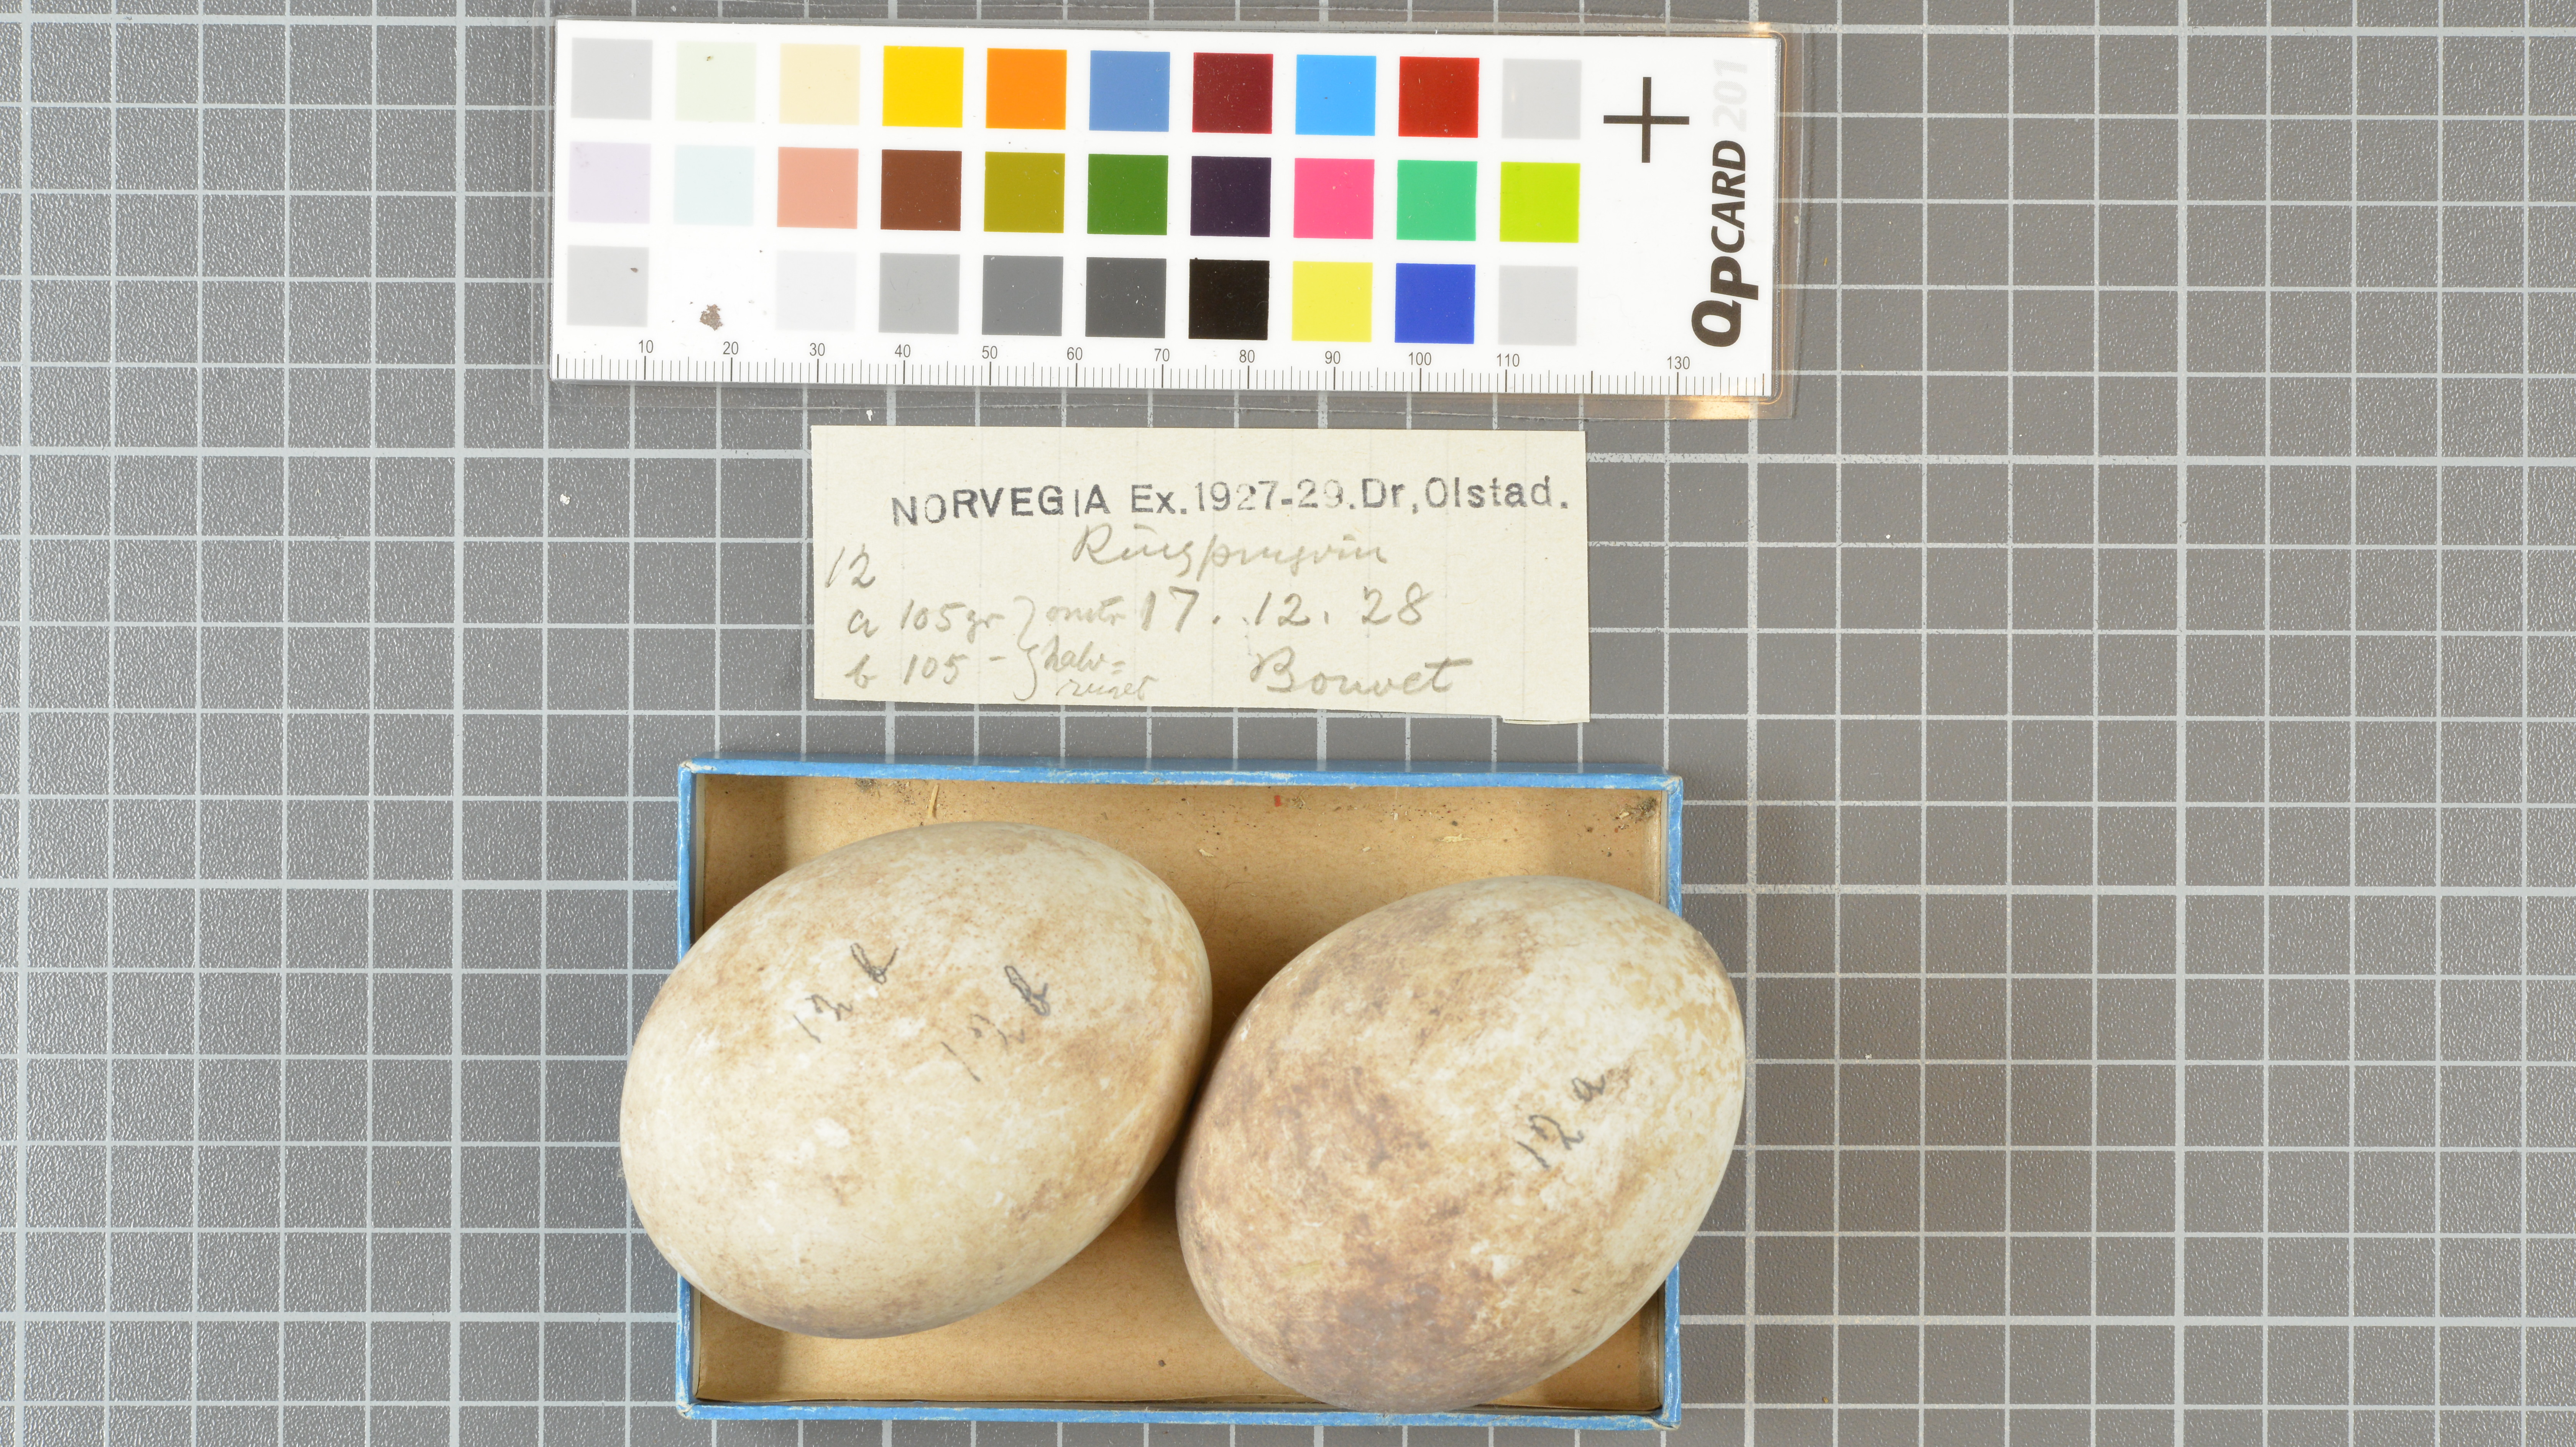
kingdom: Animalia
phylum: Chordata
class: Aves
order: Sphenisciformes
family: Spheniscidae
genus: Pygoscelis
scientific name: Pygoscelis antarcticus
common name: Chinstrap penguin
